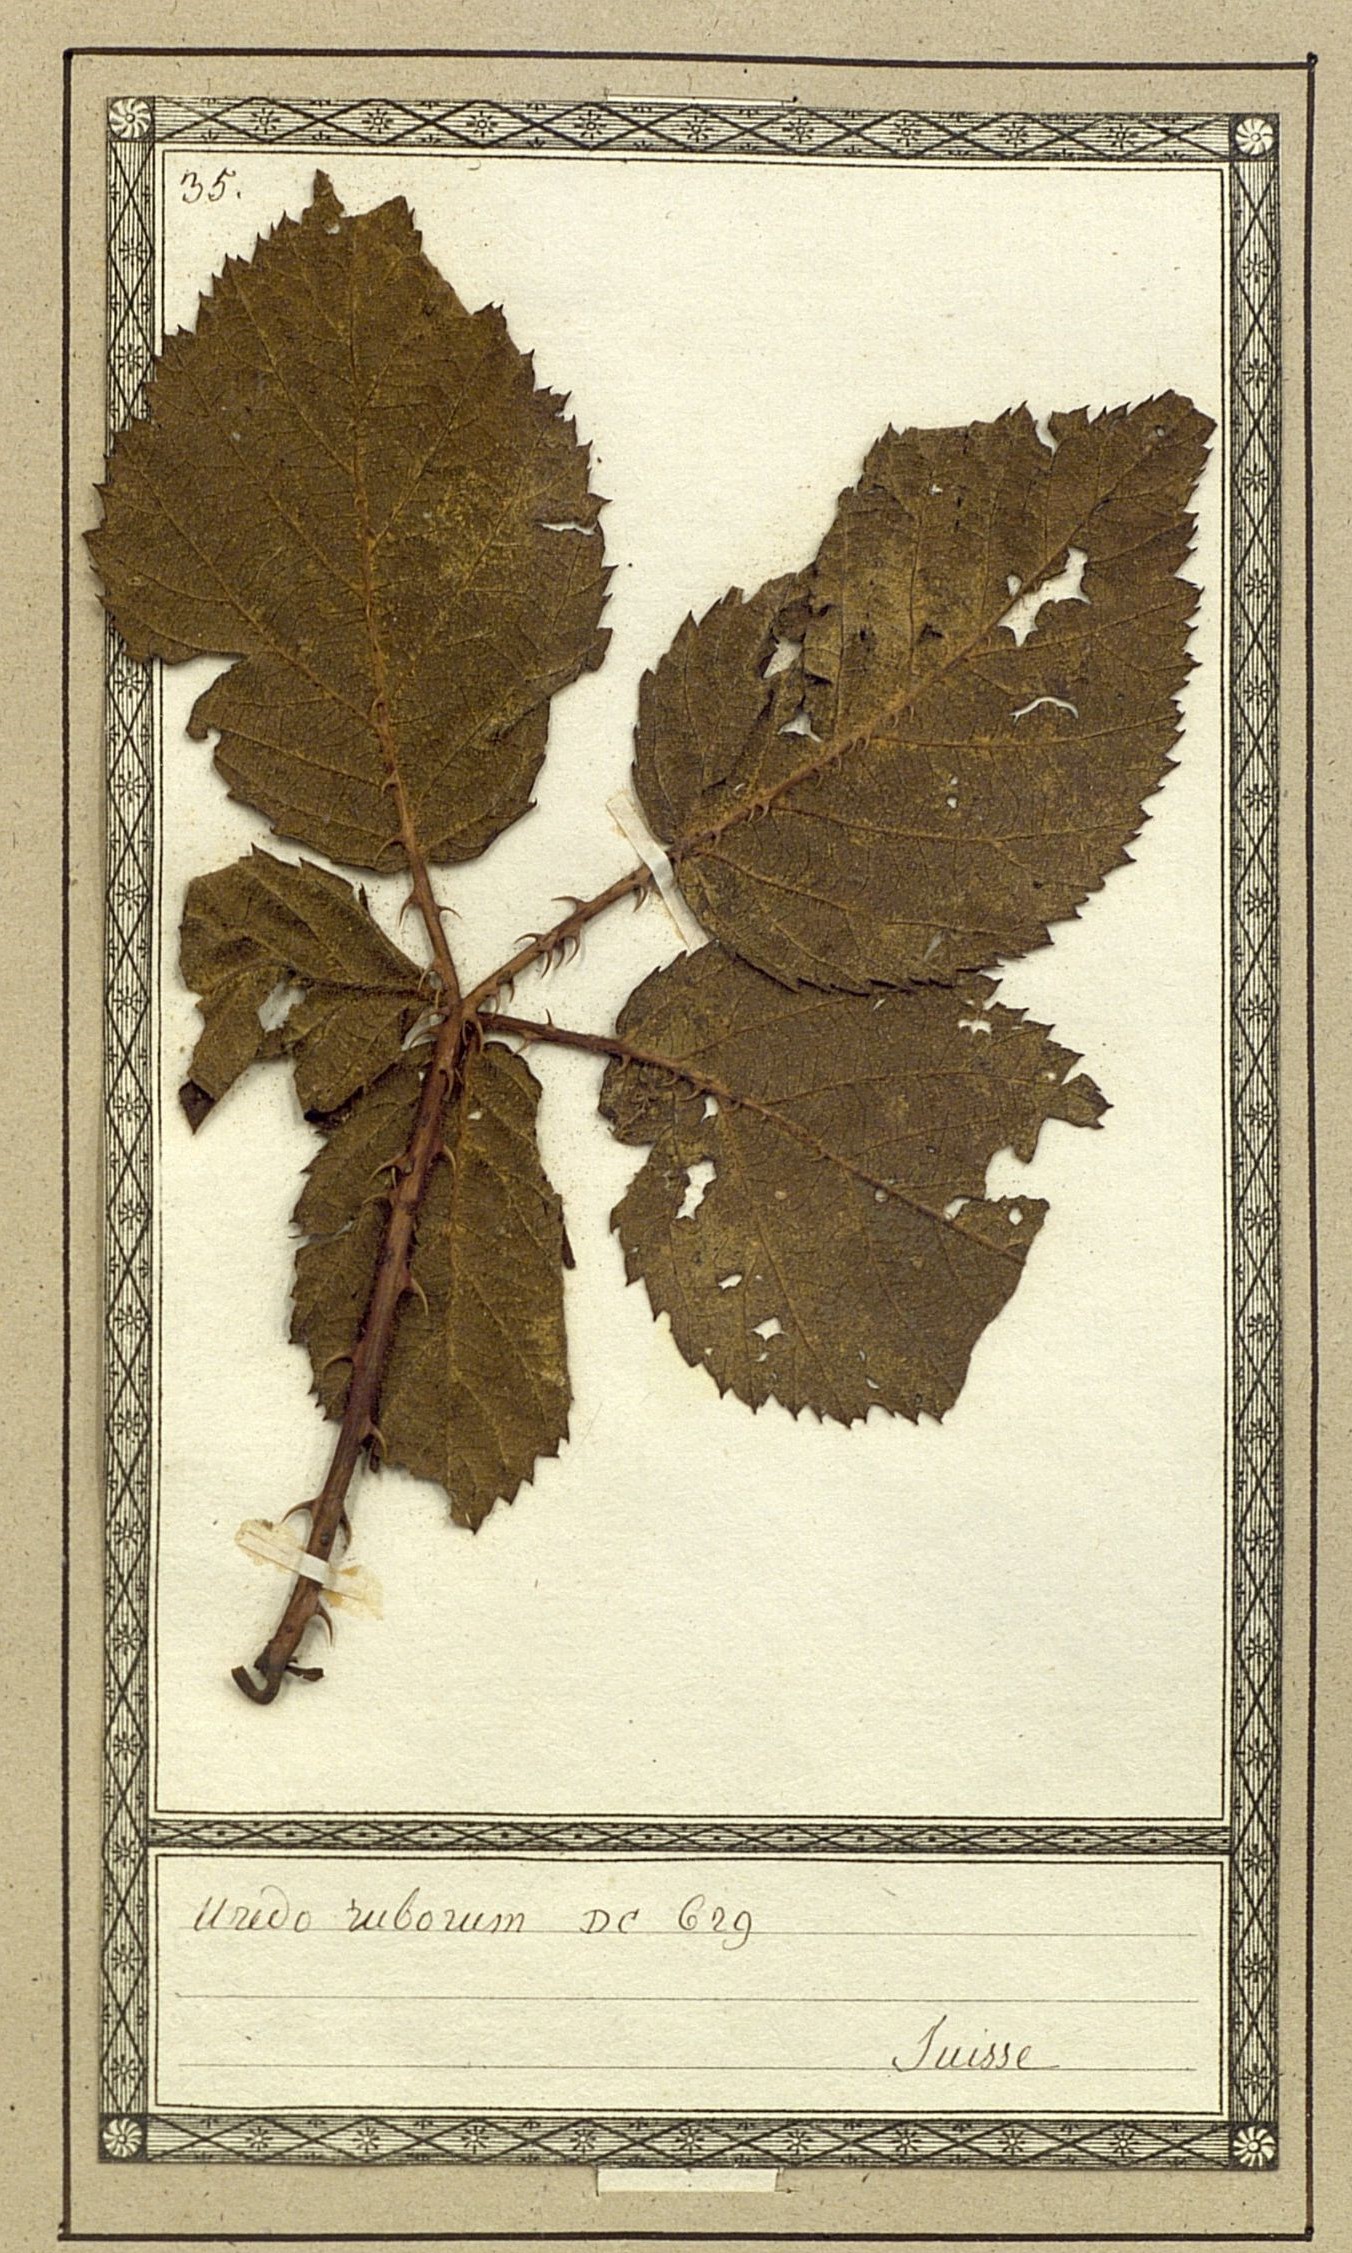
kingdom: Fungi
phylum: Basidiomycota
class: Pucciniomycetes
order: Pucciniales
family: Pucciniaceae
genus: Uredo
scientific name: Uredo ruborum
